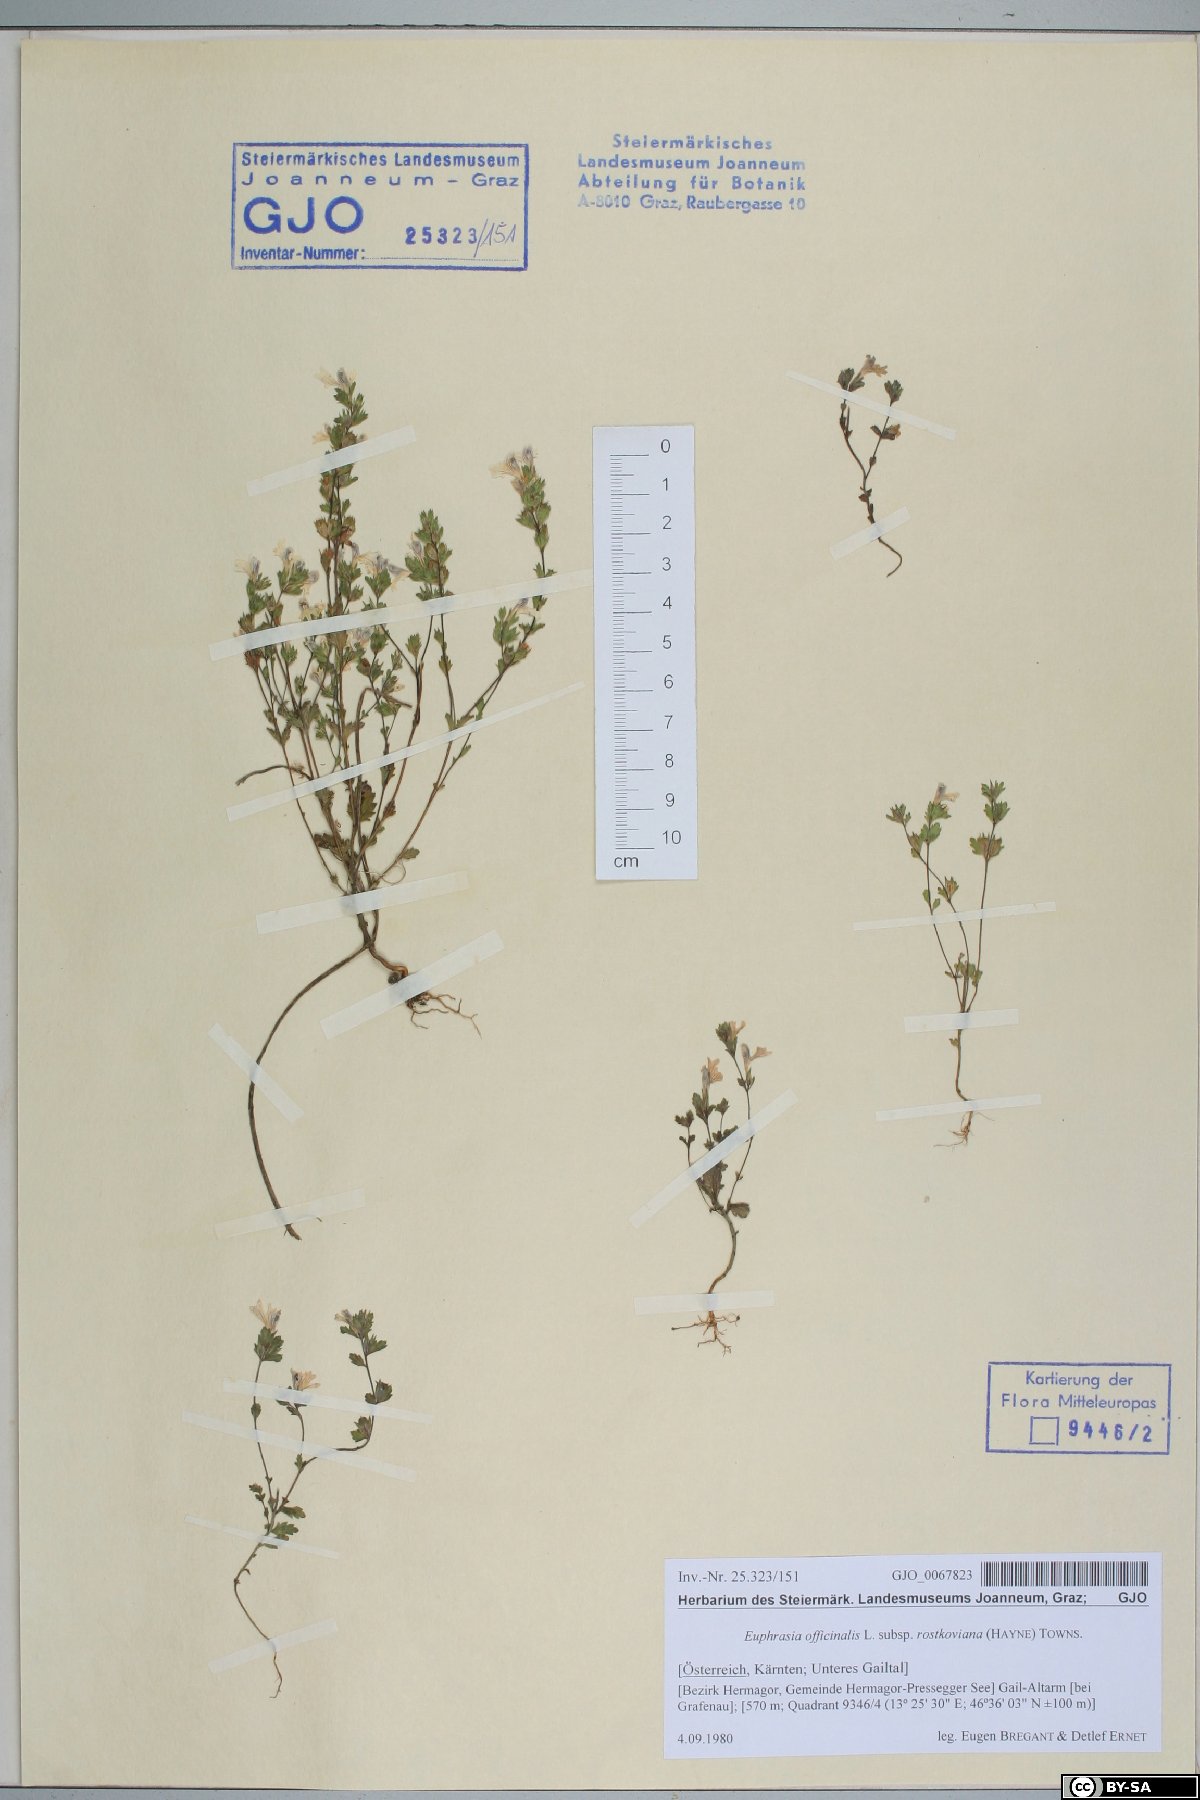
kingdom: Plantae
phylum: Tracheophyta
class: Magnoliopsida
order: Lamiales
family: Orobanchaceae
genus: Euphrasia
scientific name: Euphrasia officinalis
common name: Eyebright
